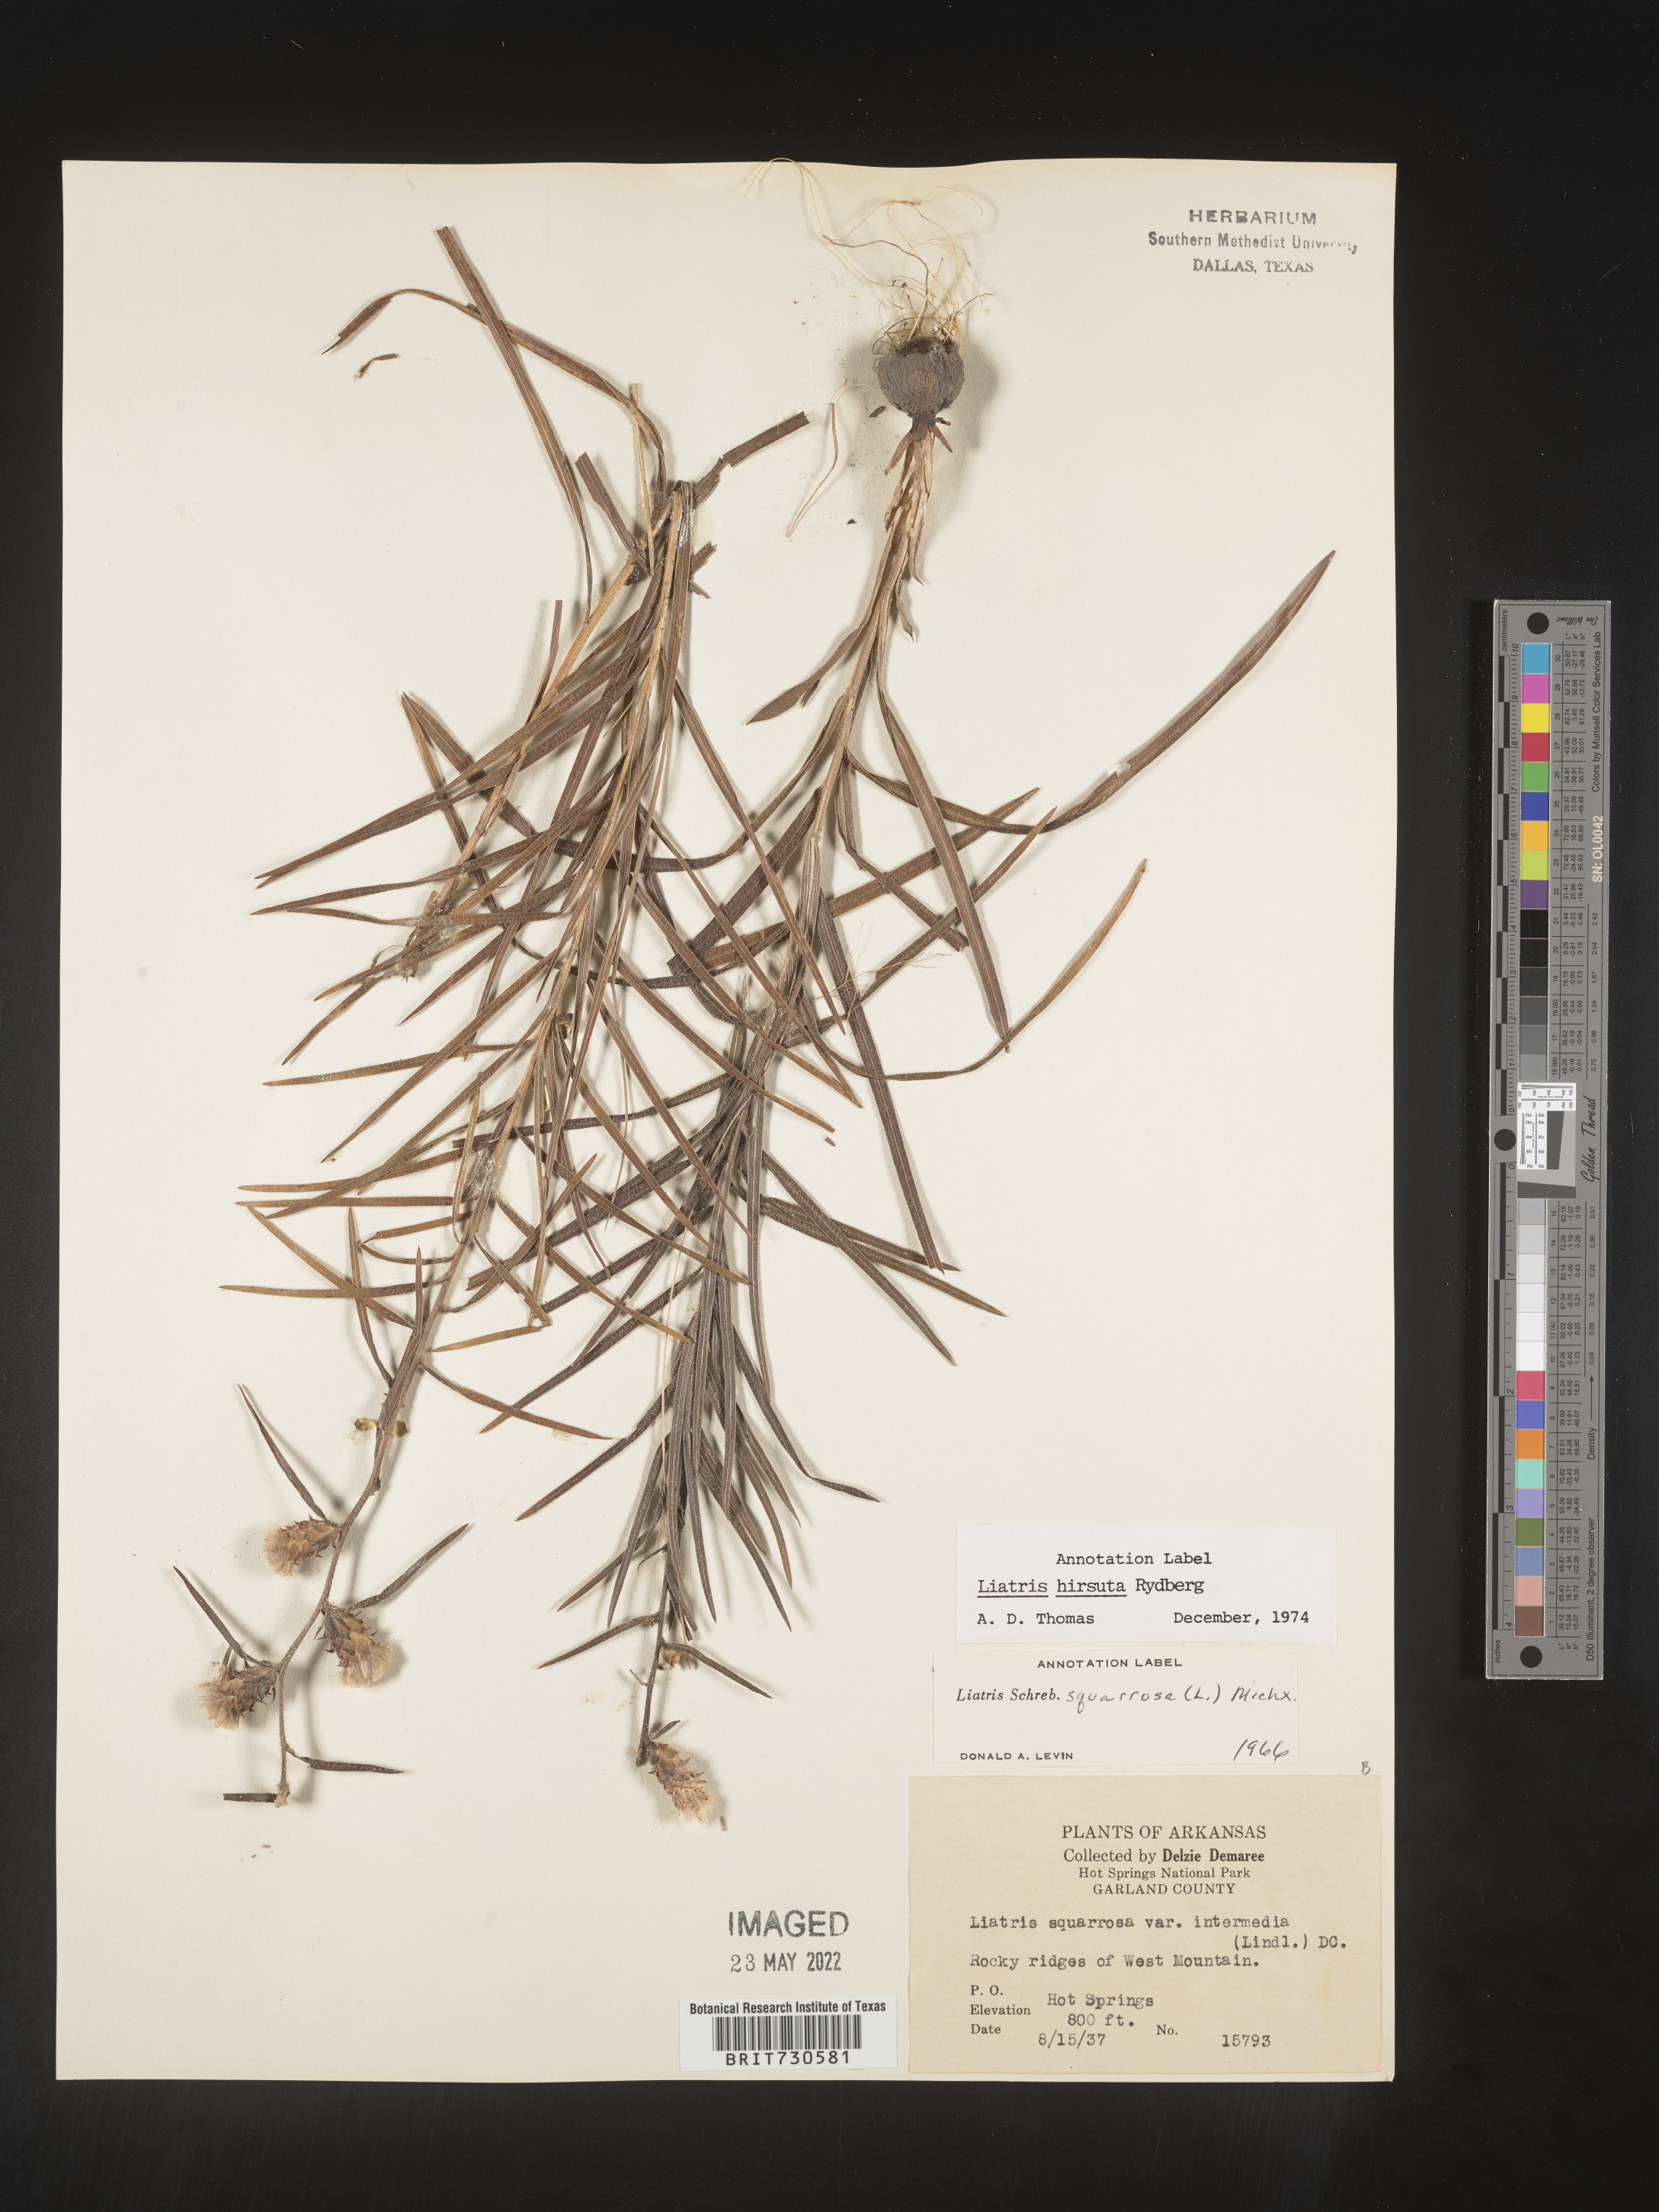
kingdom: Plantae
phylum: Tracheophyta
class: Magnoliopsida
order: Asterales
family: Asteraceae
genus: Liatris
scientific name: Liatris hirsuta
